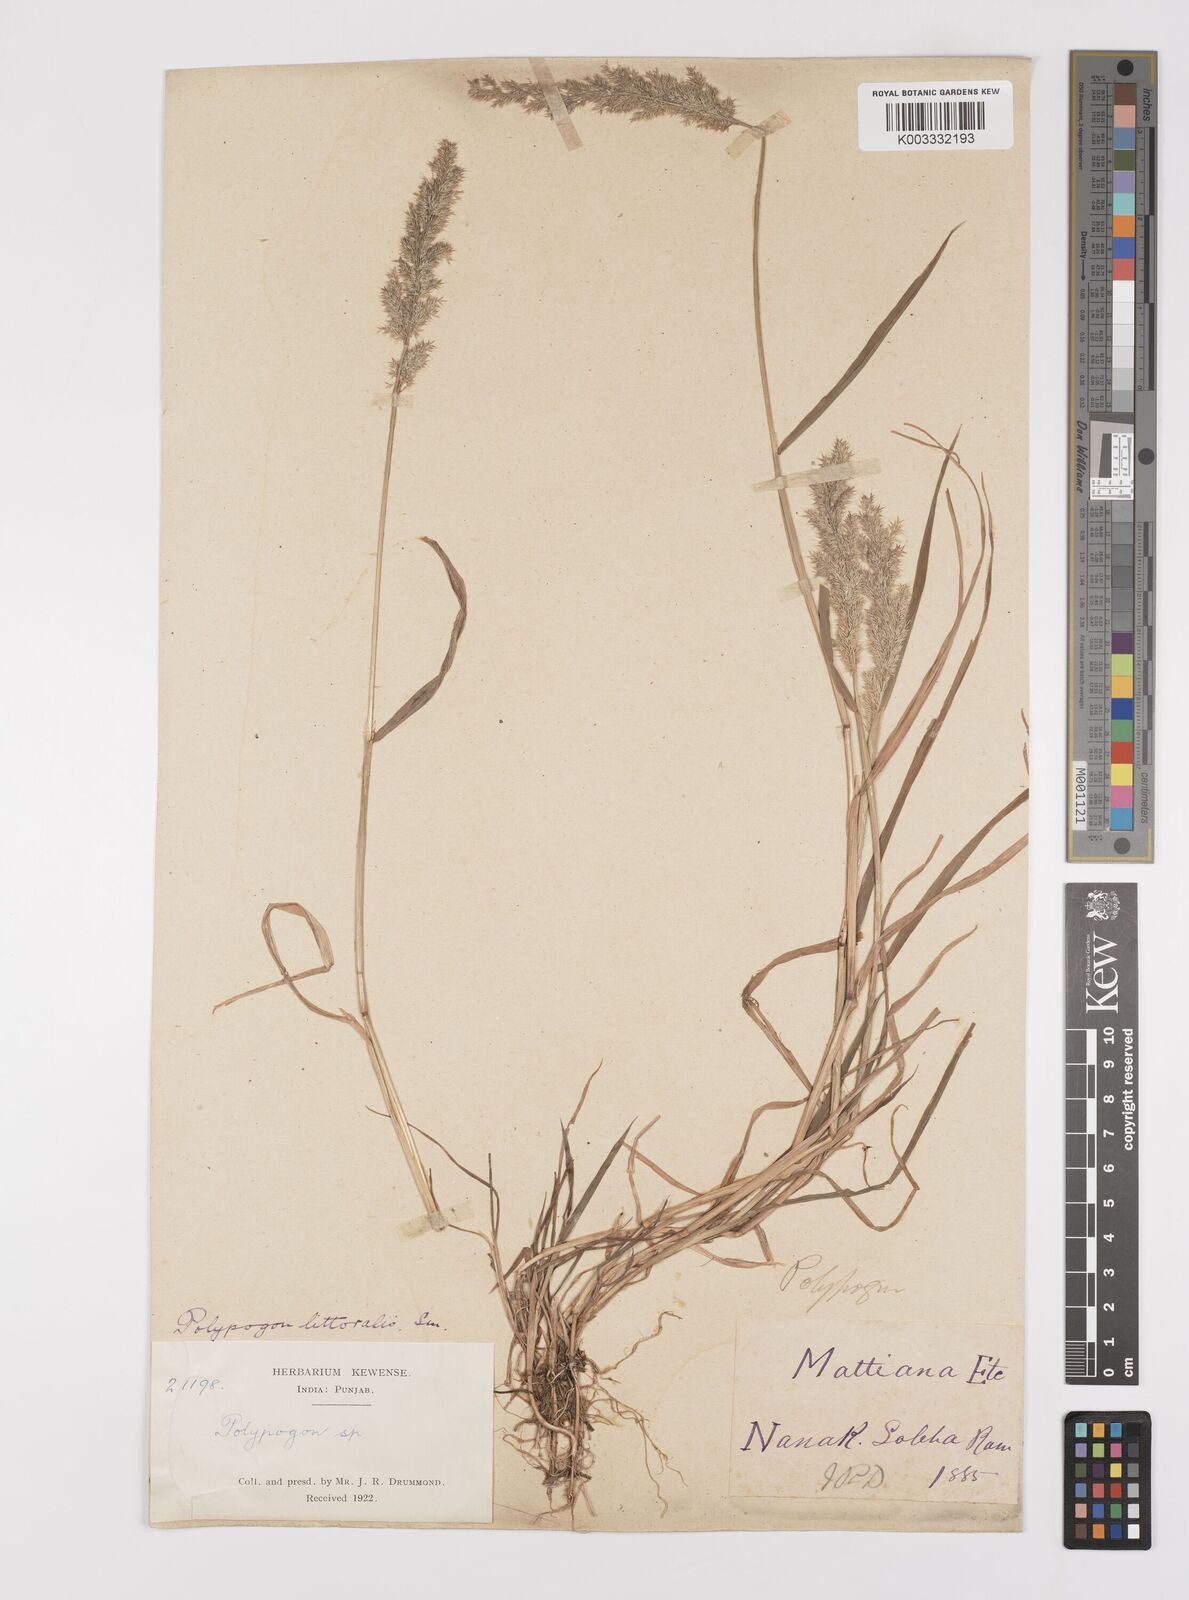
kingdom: Plantae
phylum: Tracheophyta
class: Liliopsida
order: Poales
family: Poaceae
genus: Polypogon
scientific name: Polypogon fugax
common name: Asia minor bluegrass
